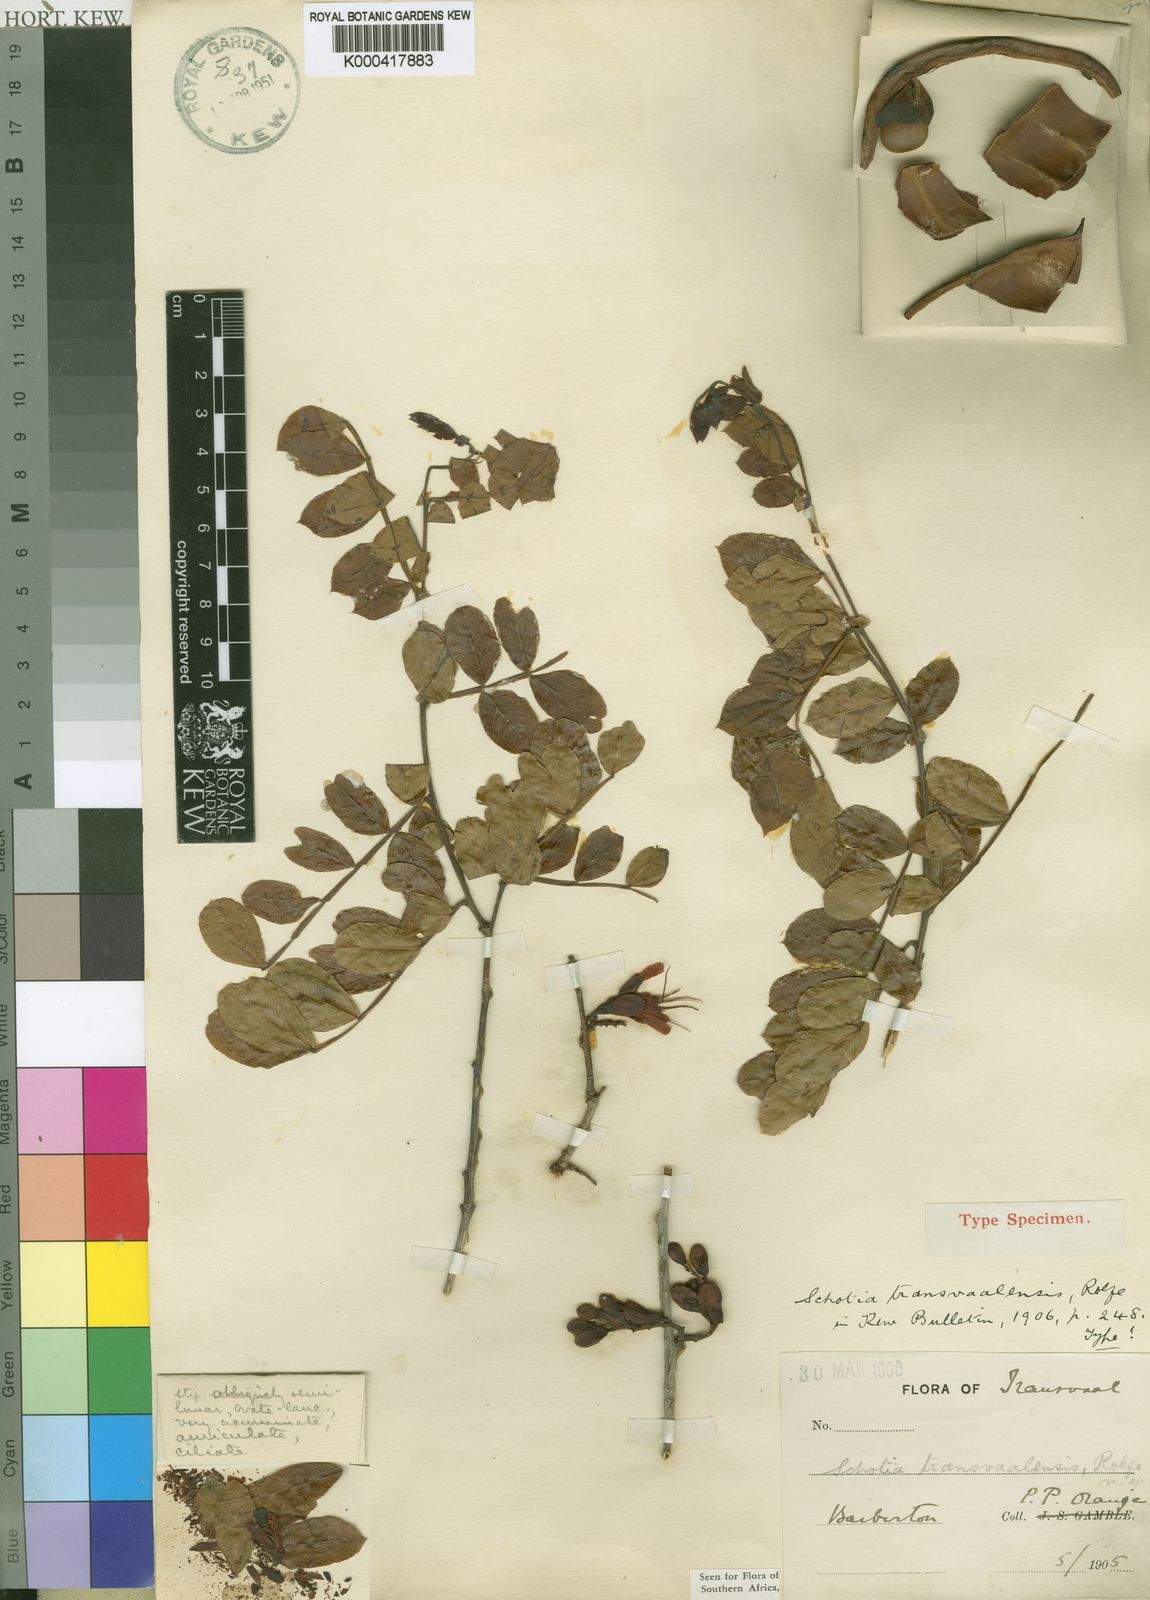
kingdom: Plantae
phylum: Tracheophyta
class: Magnoliopsida
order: Fabales
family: Fabaceae
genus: Schotia
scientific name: Schotia capitata
